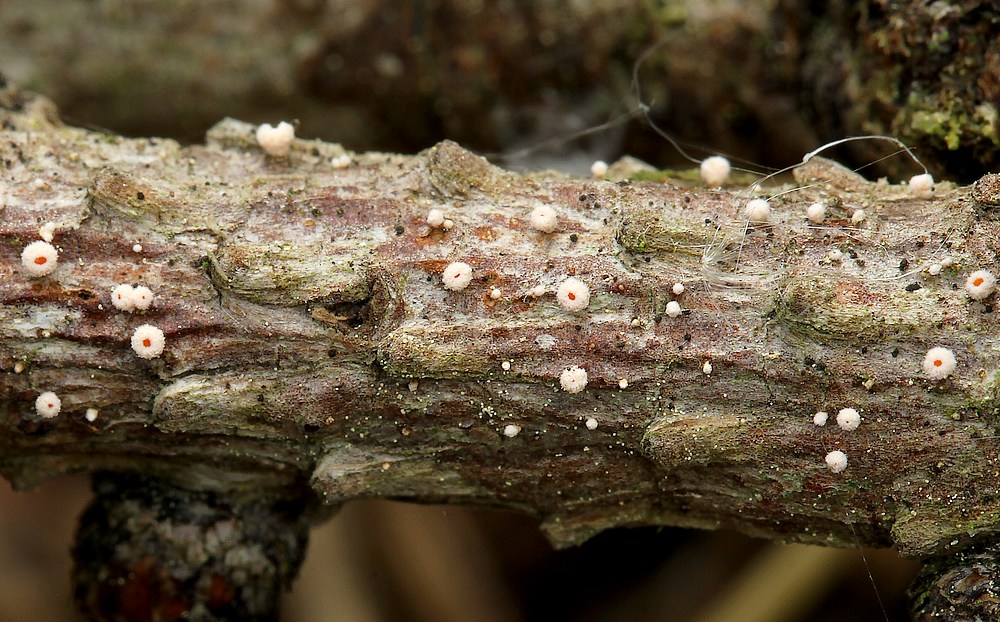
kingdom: Fungi
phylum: Ascomycota
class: Leotiomycetes
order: Helotiales
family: Lachnaceae
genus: Lachnellula
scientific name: Lachnellula occidentalis
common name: Larch disco
